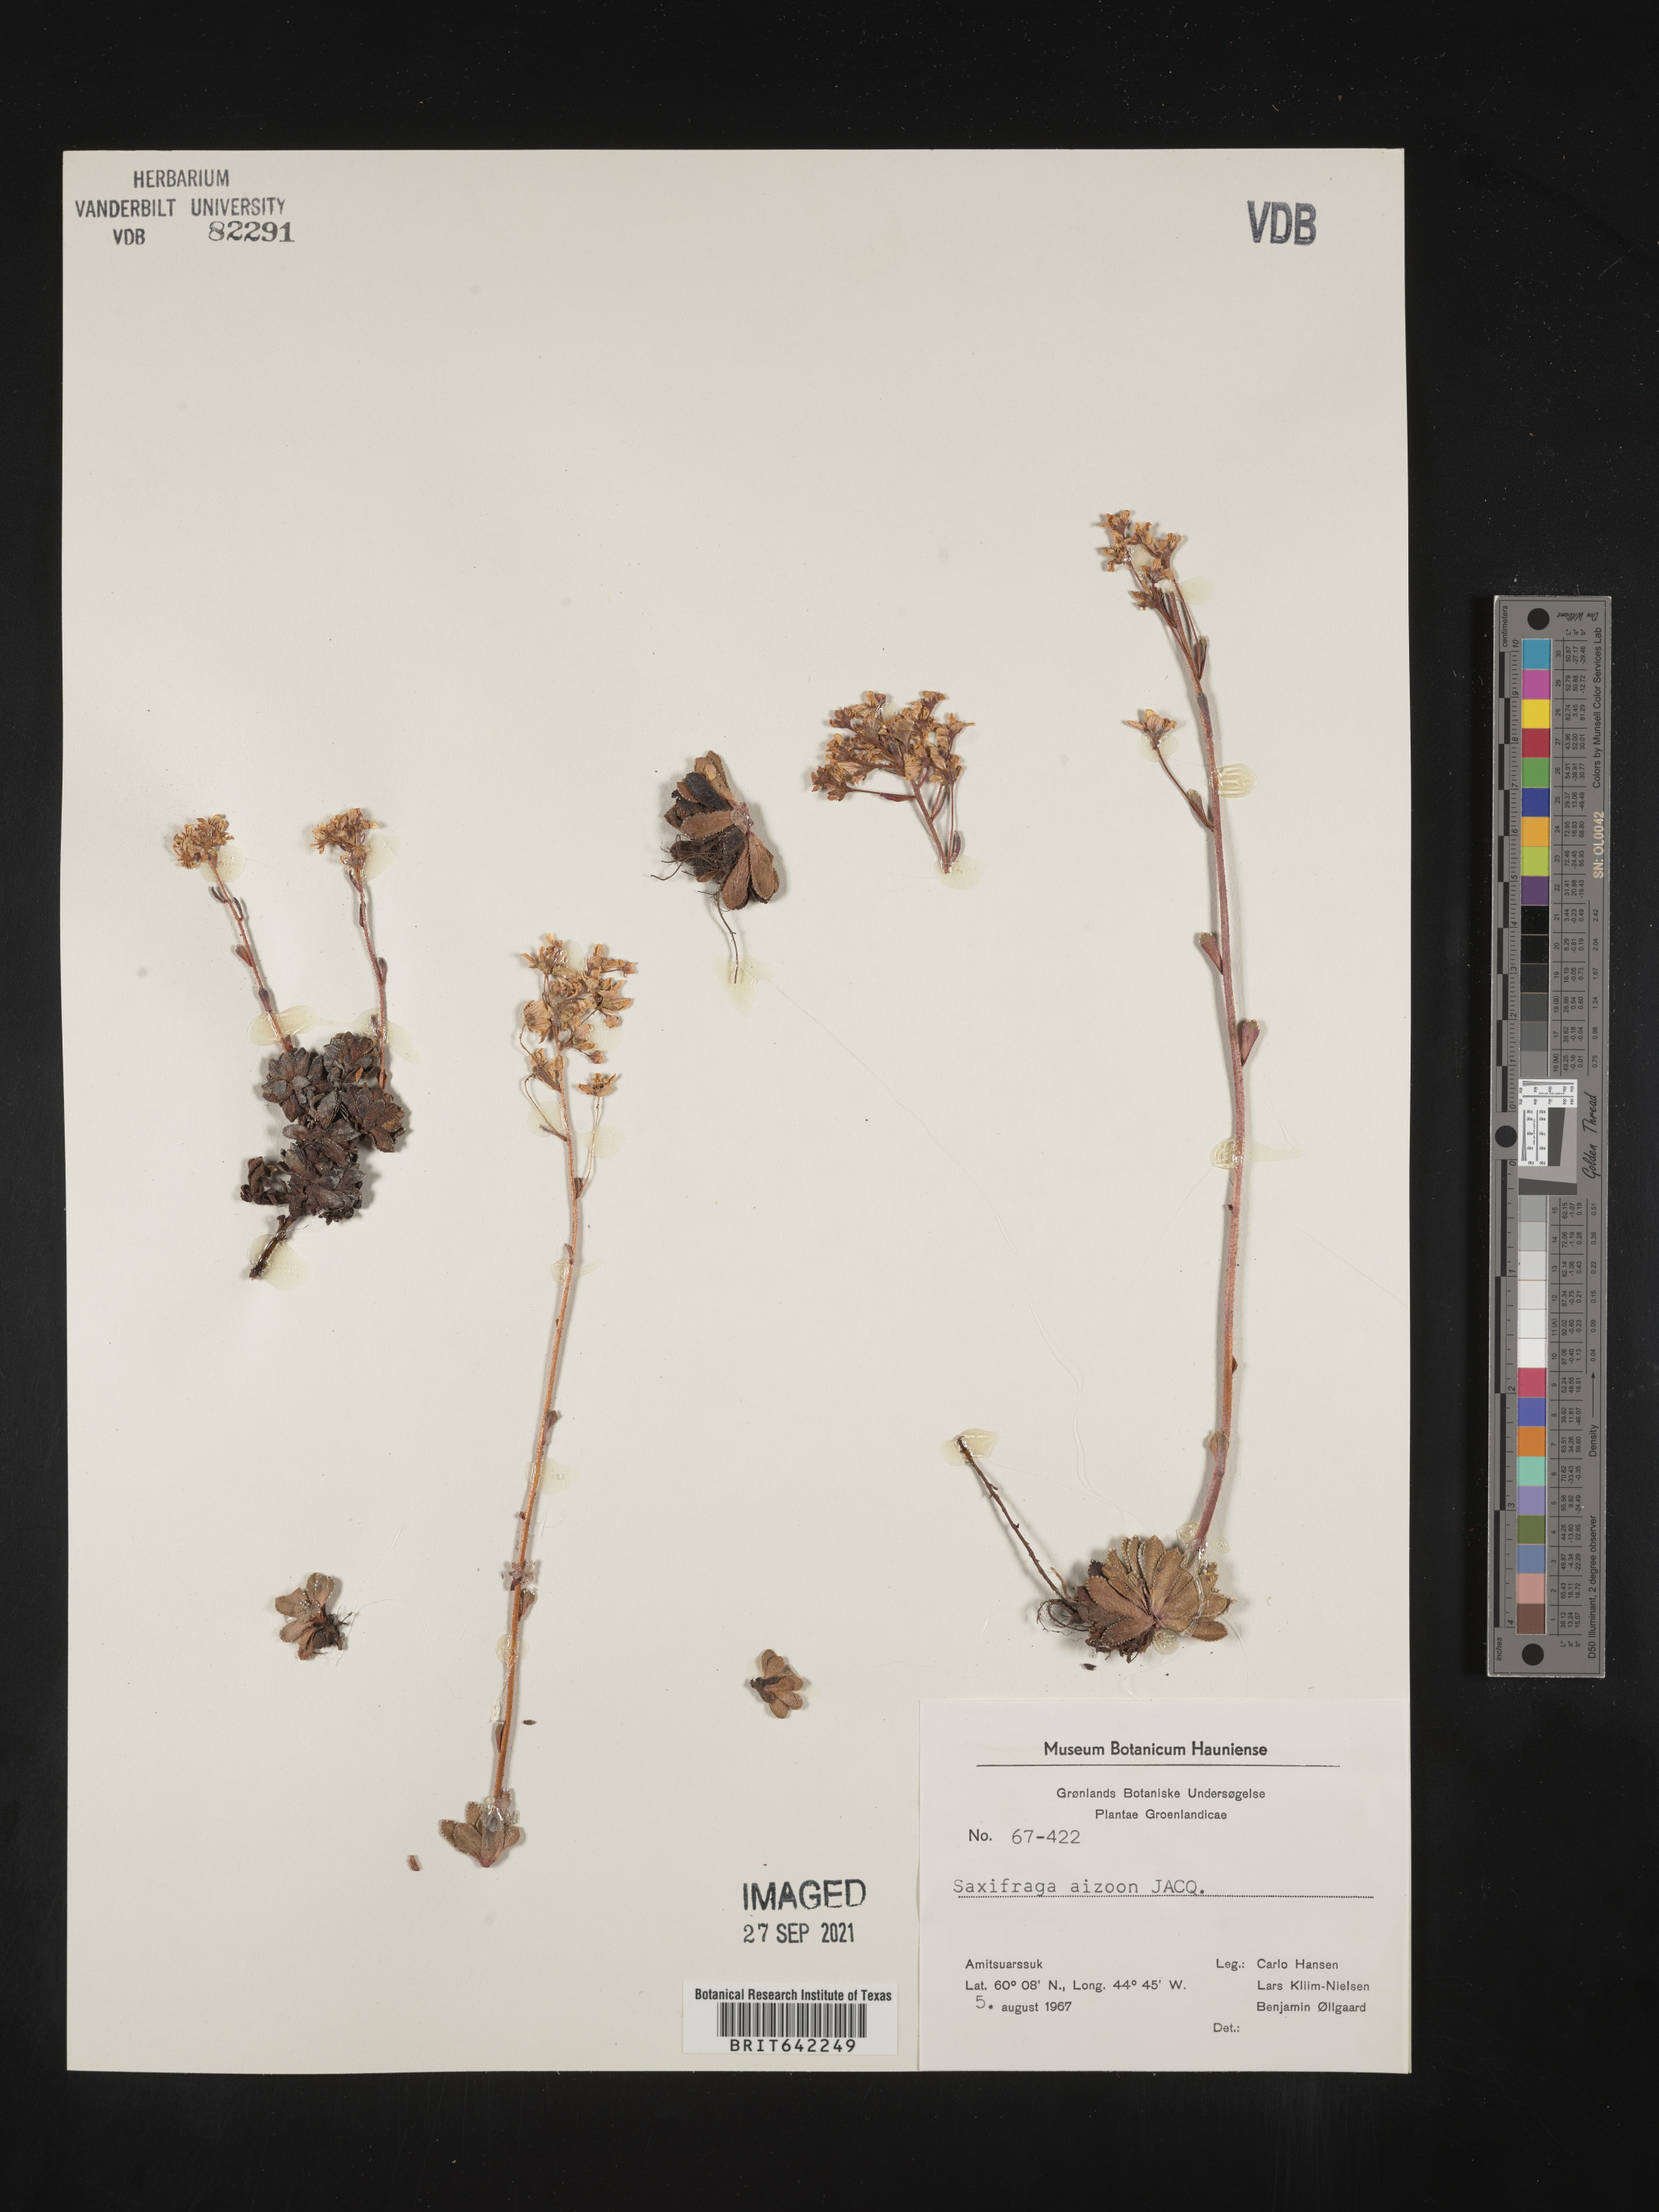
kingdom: Plantae
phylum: Tracheophyta
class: Magnoliopsida
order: Saxifragales
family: Saxifragaceae
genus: Saxifraga
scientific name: Saxifraga
